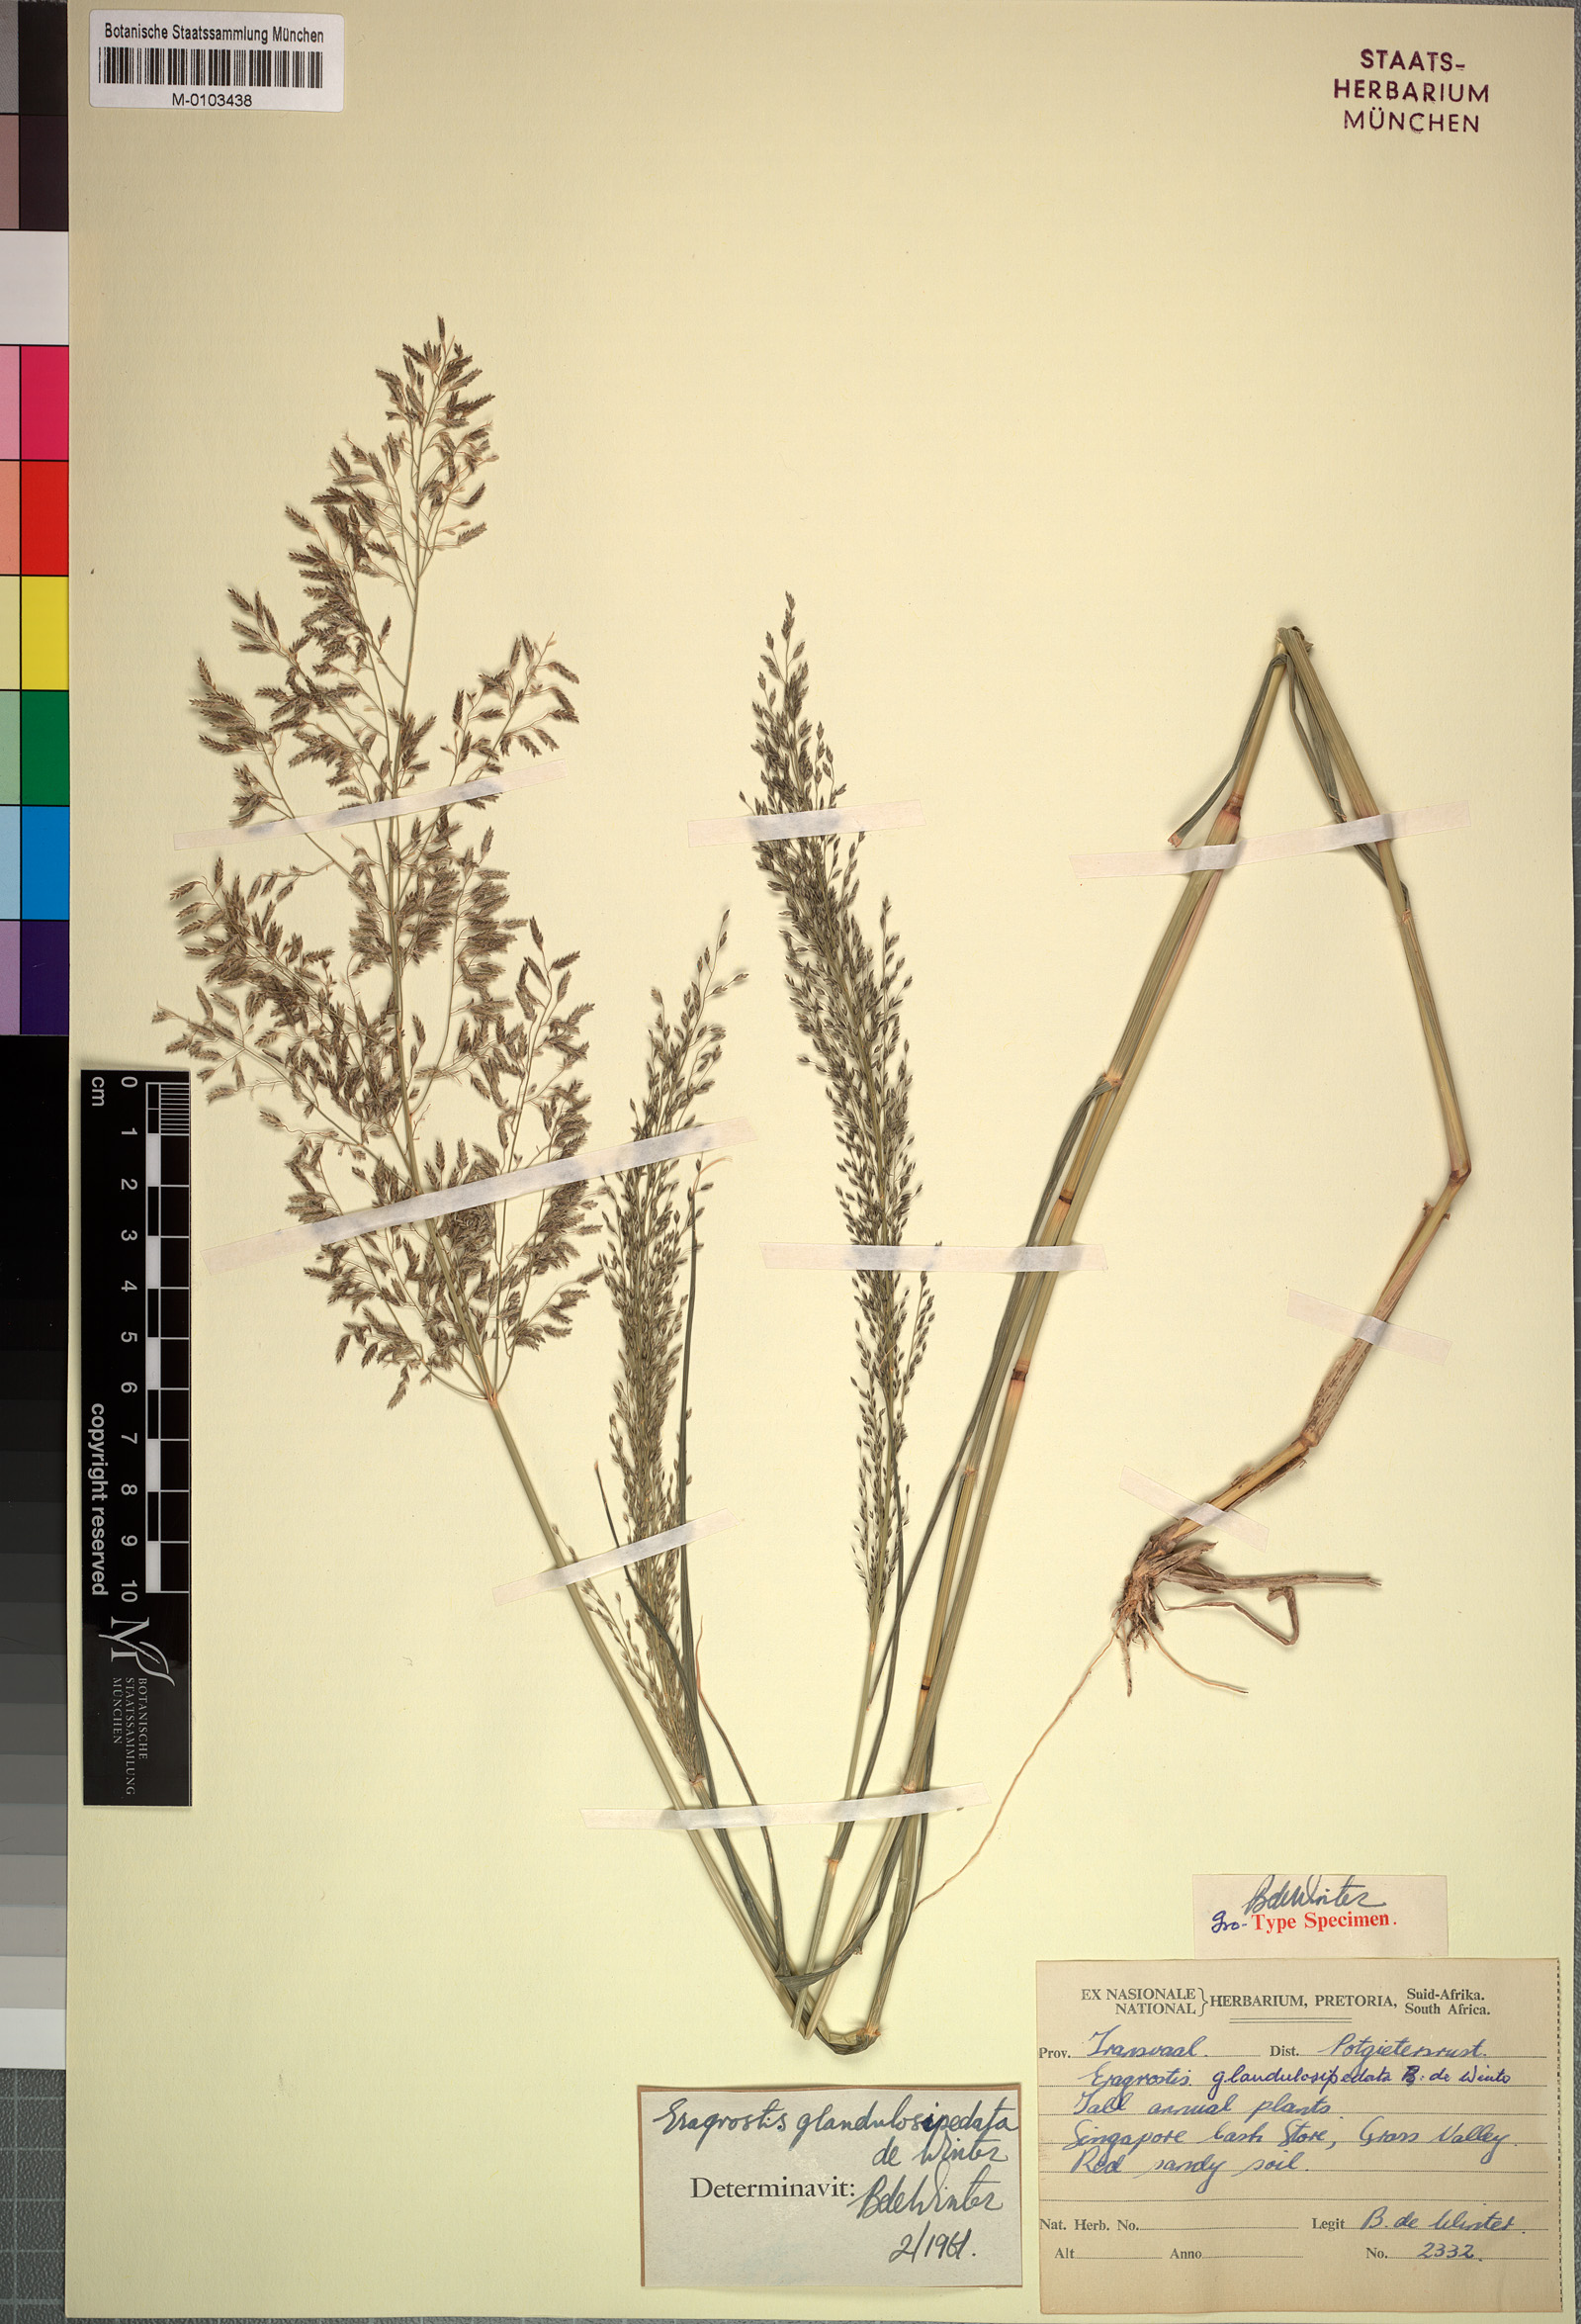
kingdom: Plantae
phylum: Tracheophyta
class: Liliopsida
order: Poales
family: Poaceae
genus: Eragrostis
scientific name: Eragrostis glandulosipedata
